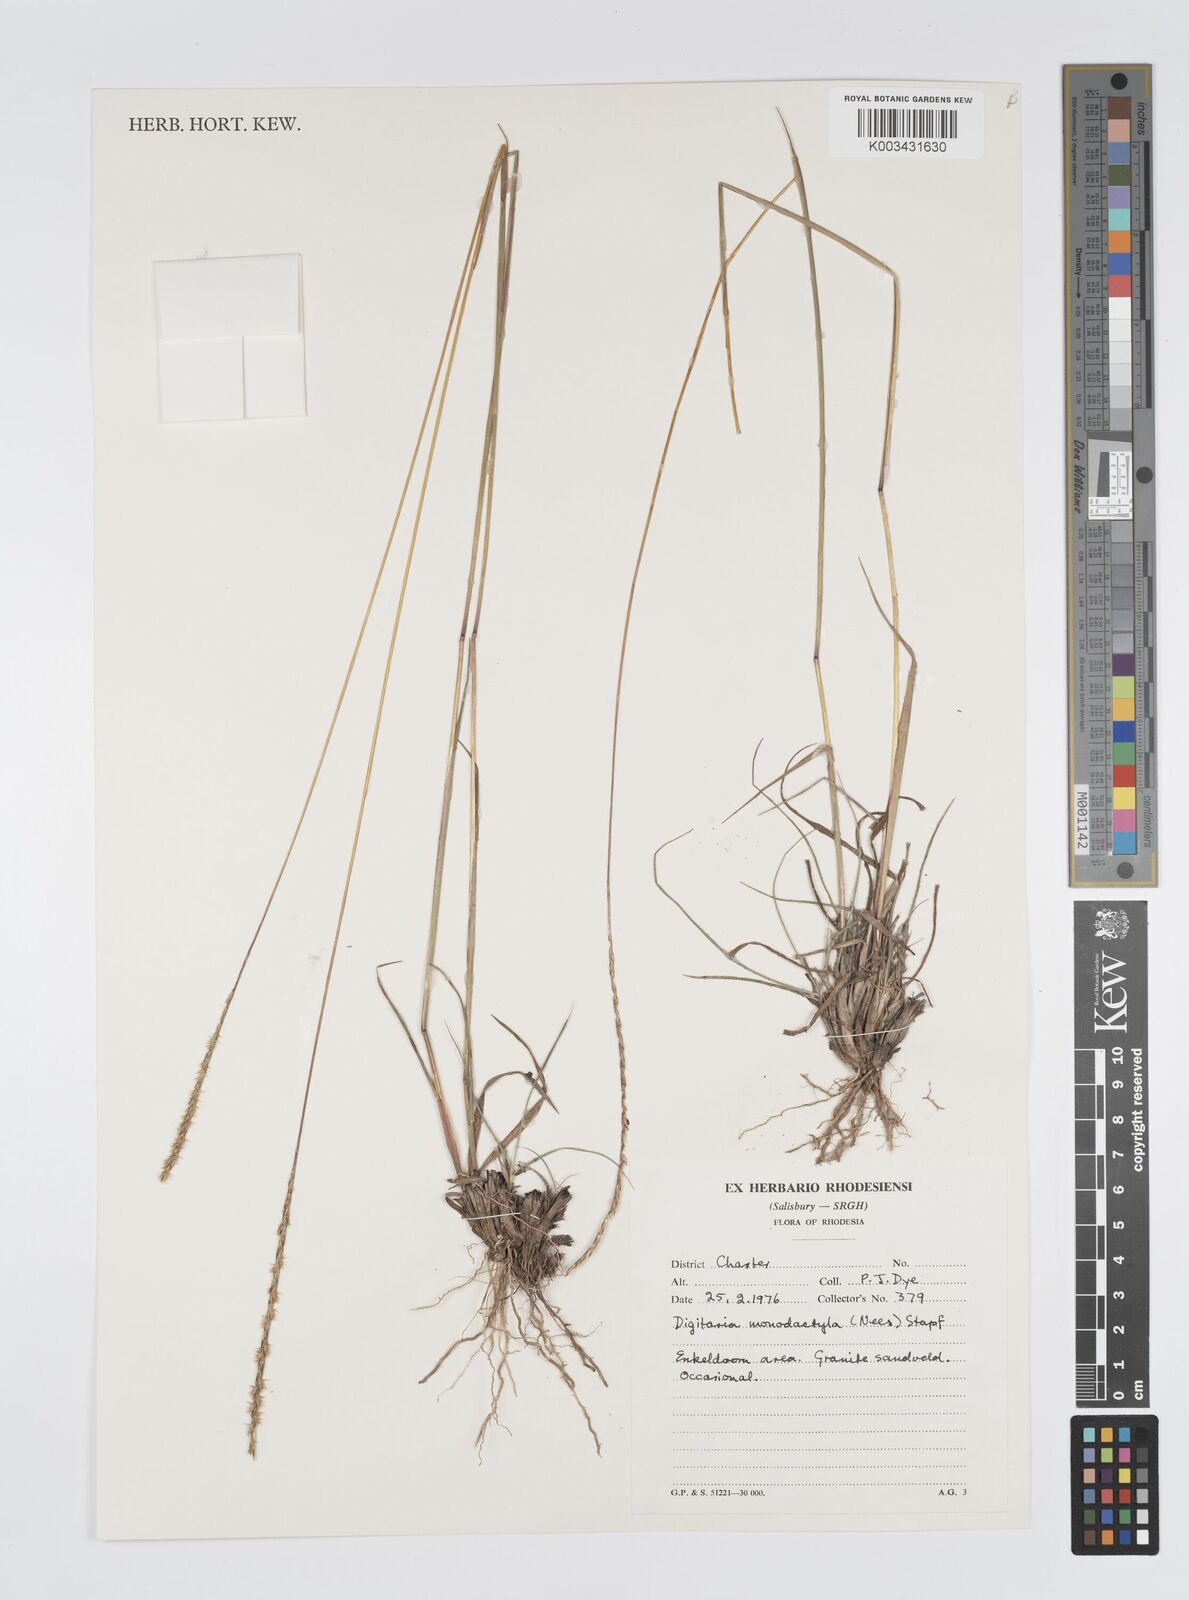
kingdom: Plantae
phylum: Tracheophyta
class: Liliopsida
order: Poales
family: Poaceae
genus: Digitaria
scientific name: Digitaria monodactyla
